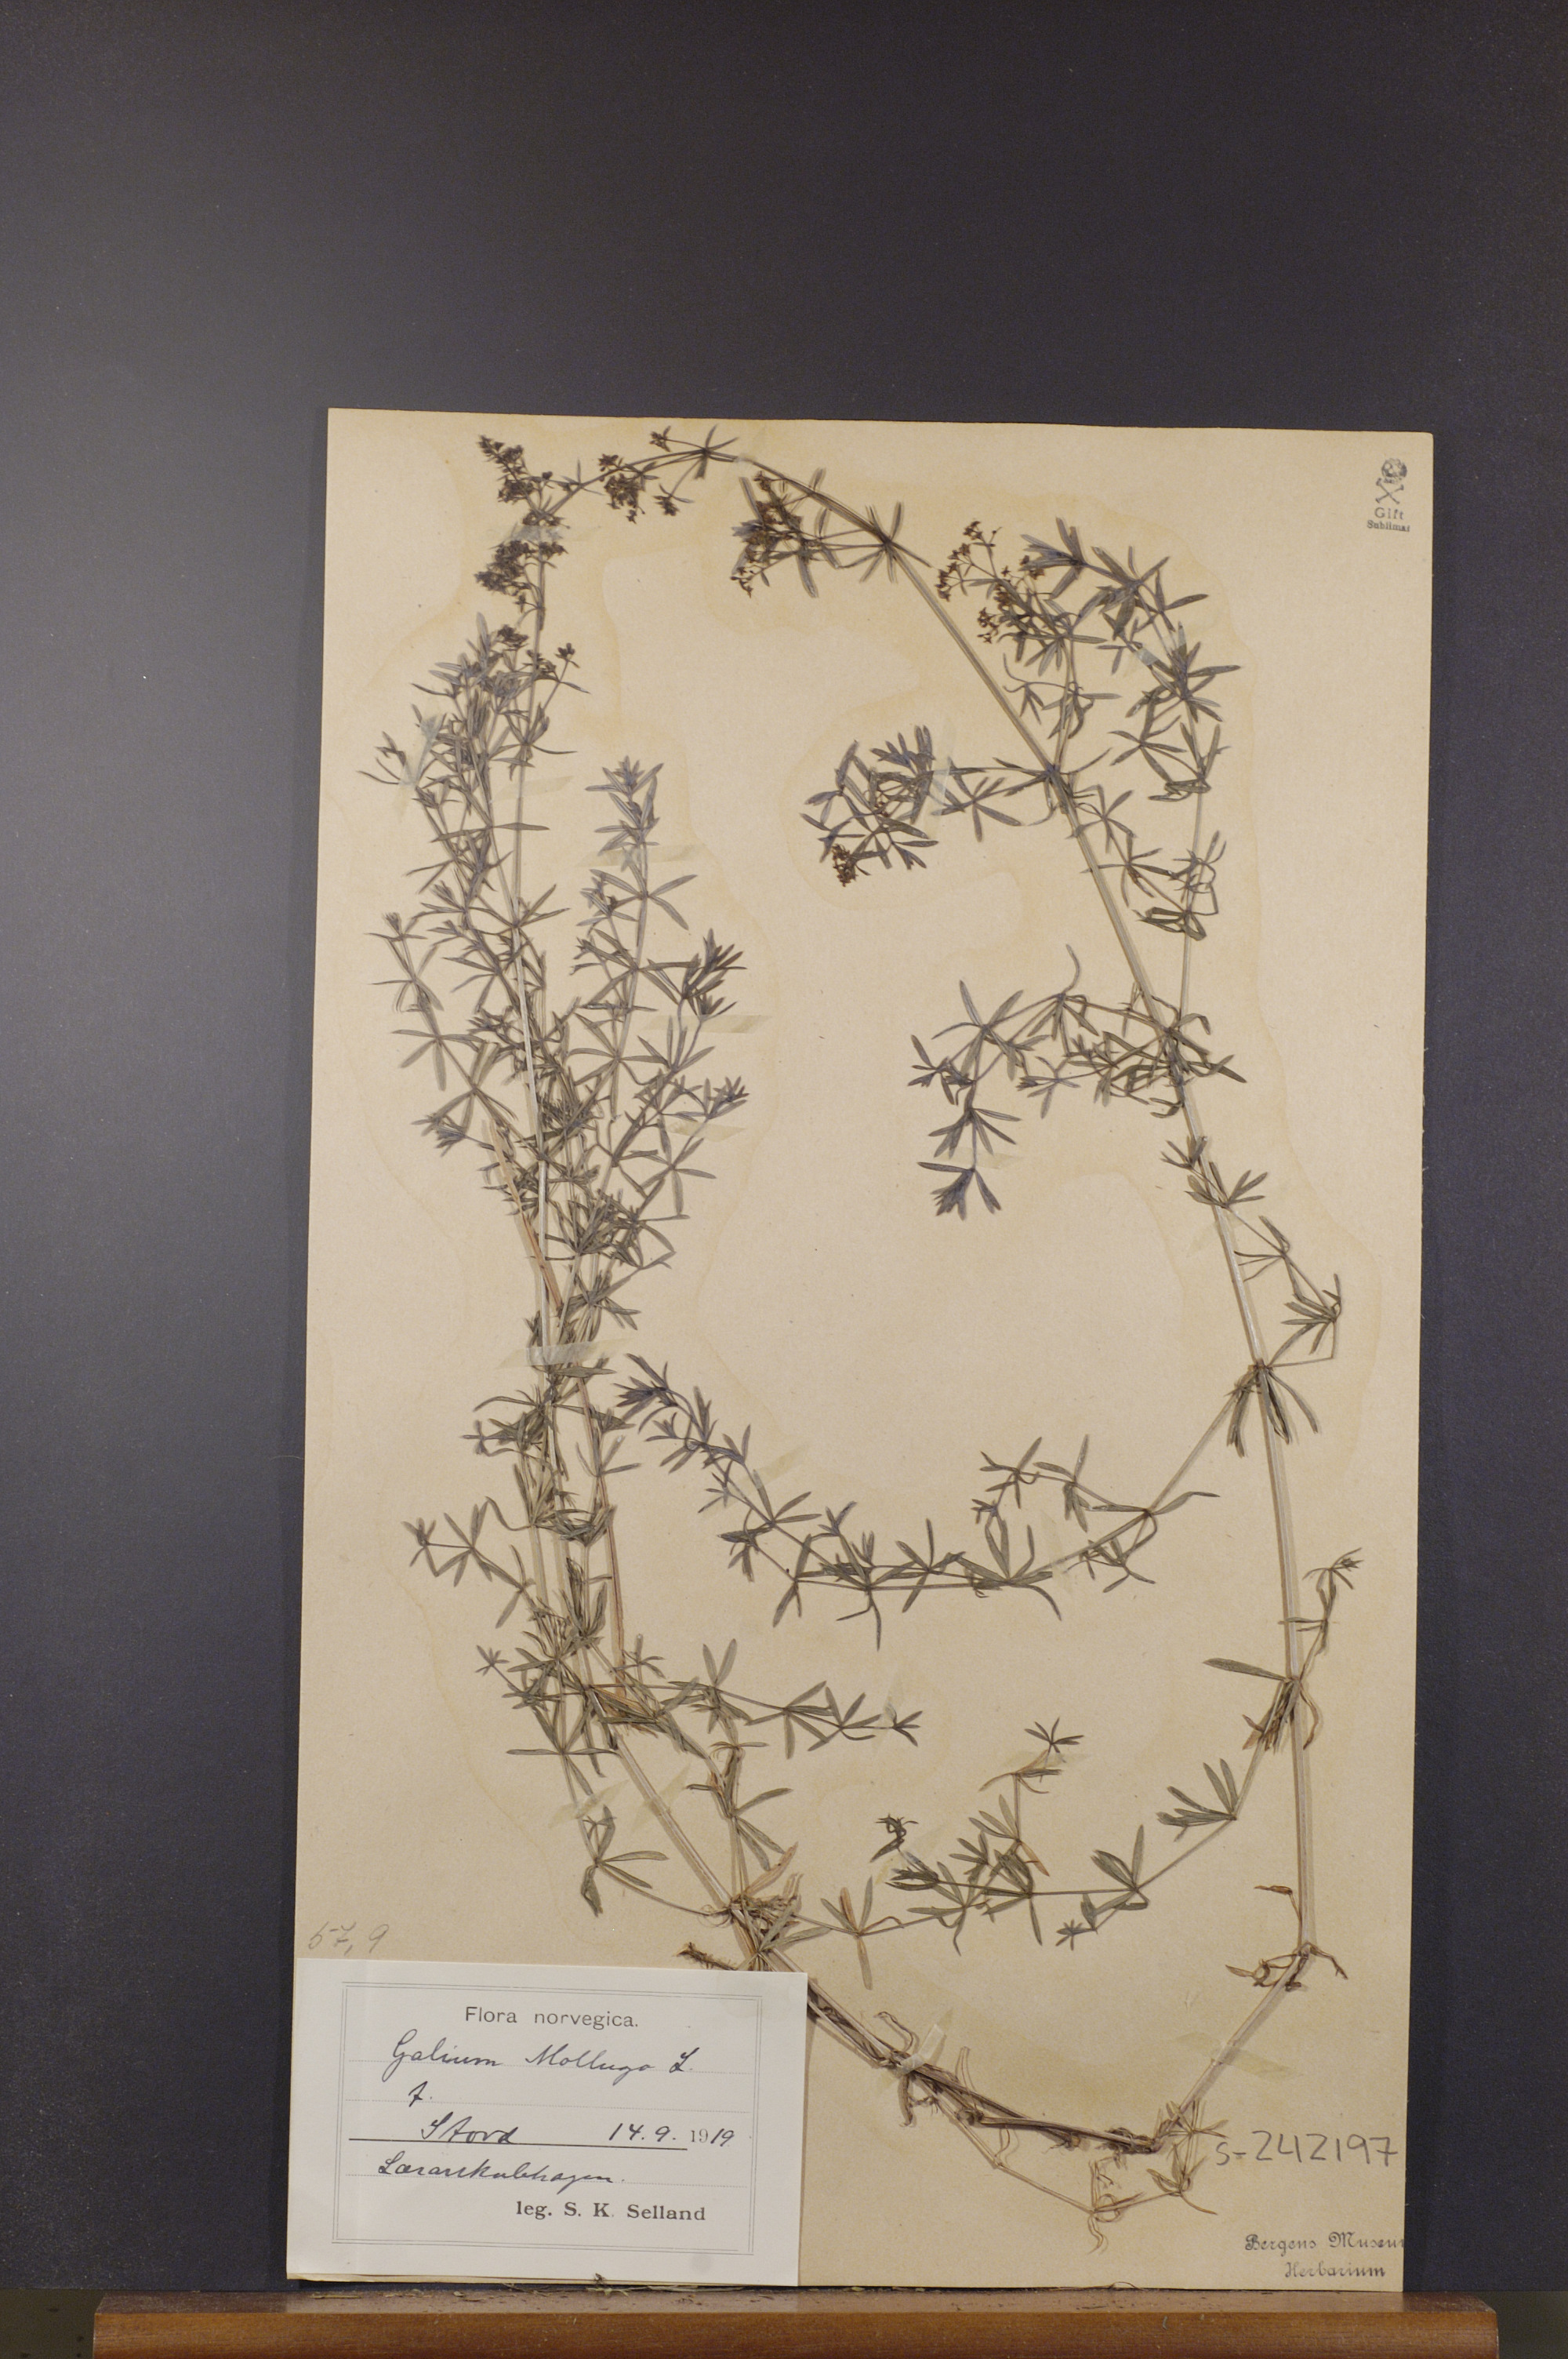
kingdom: Plantae
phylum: Tracheophyta
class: Magnoliopsida
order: Gentianales
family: Rubiaceae
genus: Galium
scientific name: Galium mollugo
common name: Hedge bedstraw
